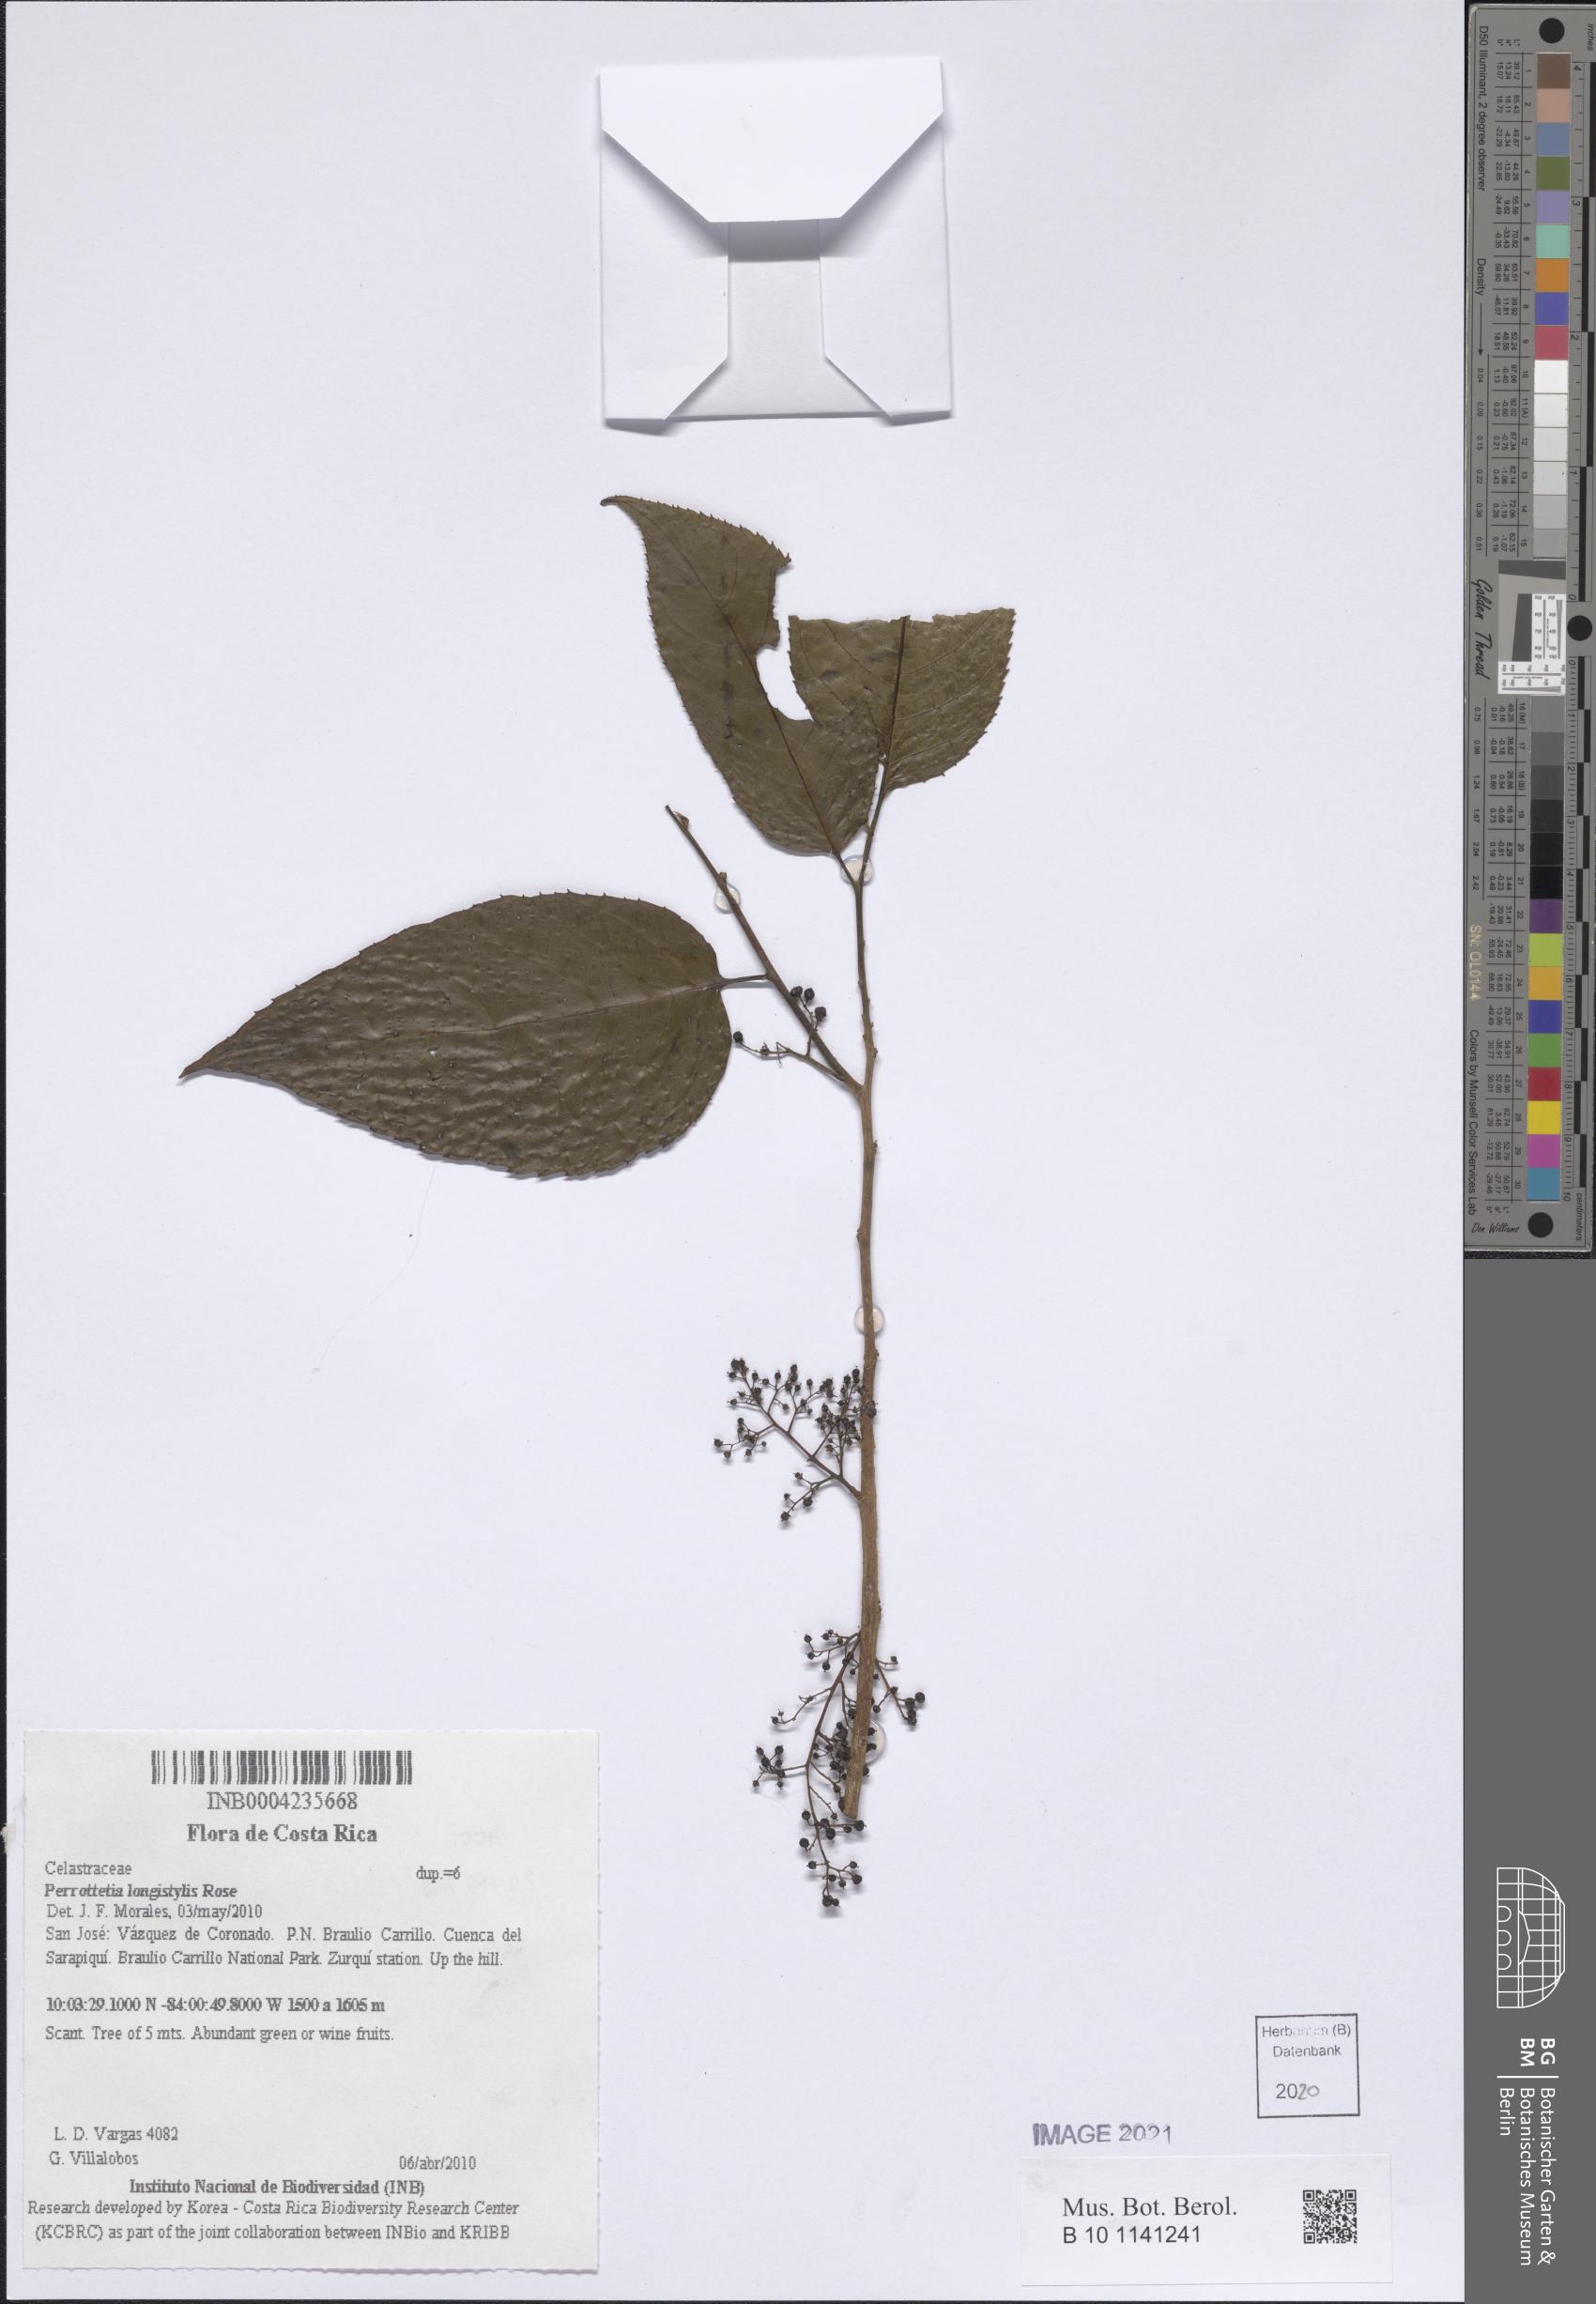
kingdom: Plantae
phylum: Tracheophyta
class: Magnoliopsida
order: Huerteales
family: Dipentodontaceae
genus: Perrottetia
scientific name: Perrottetia longistylis
